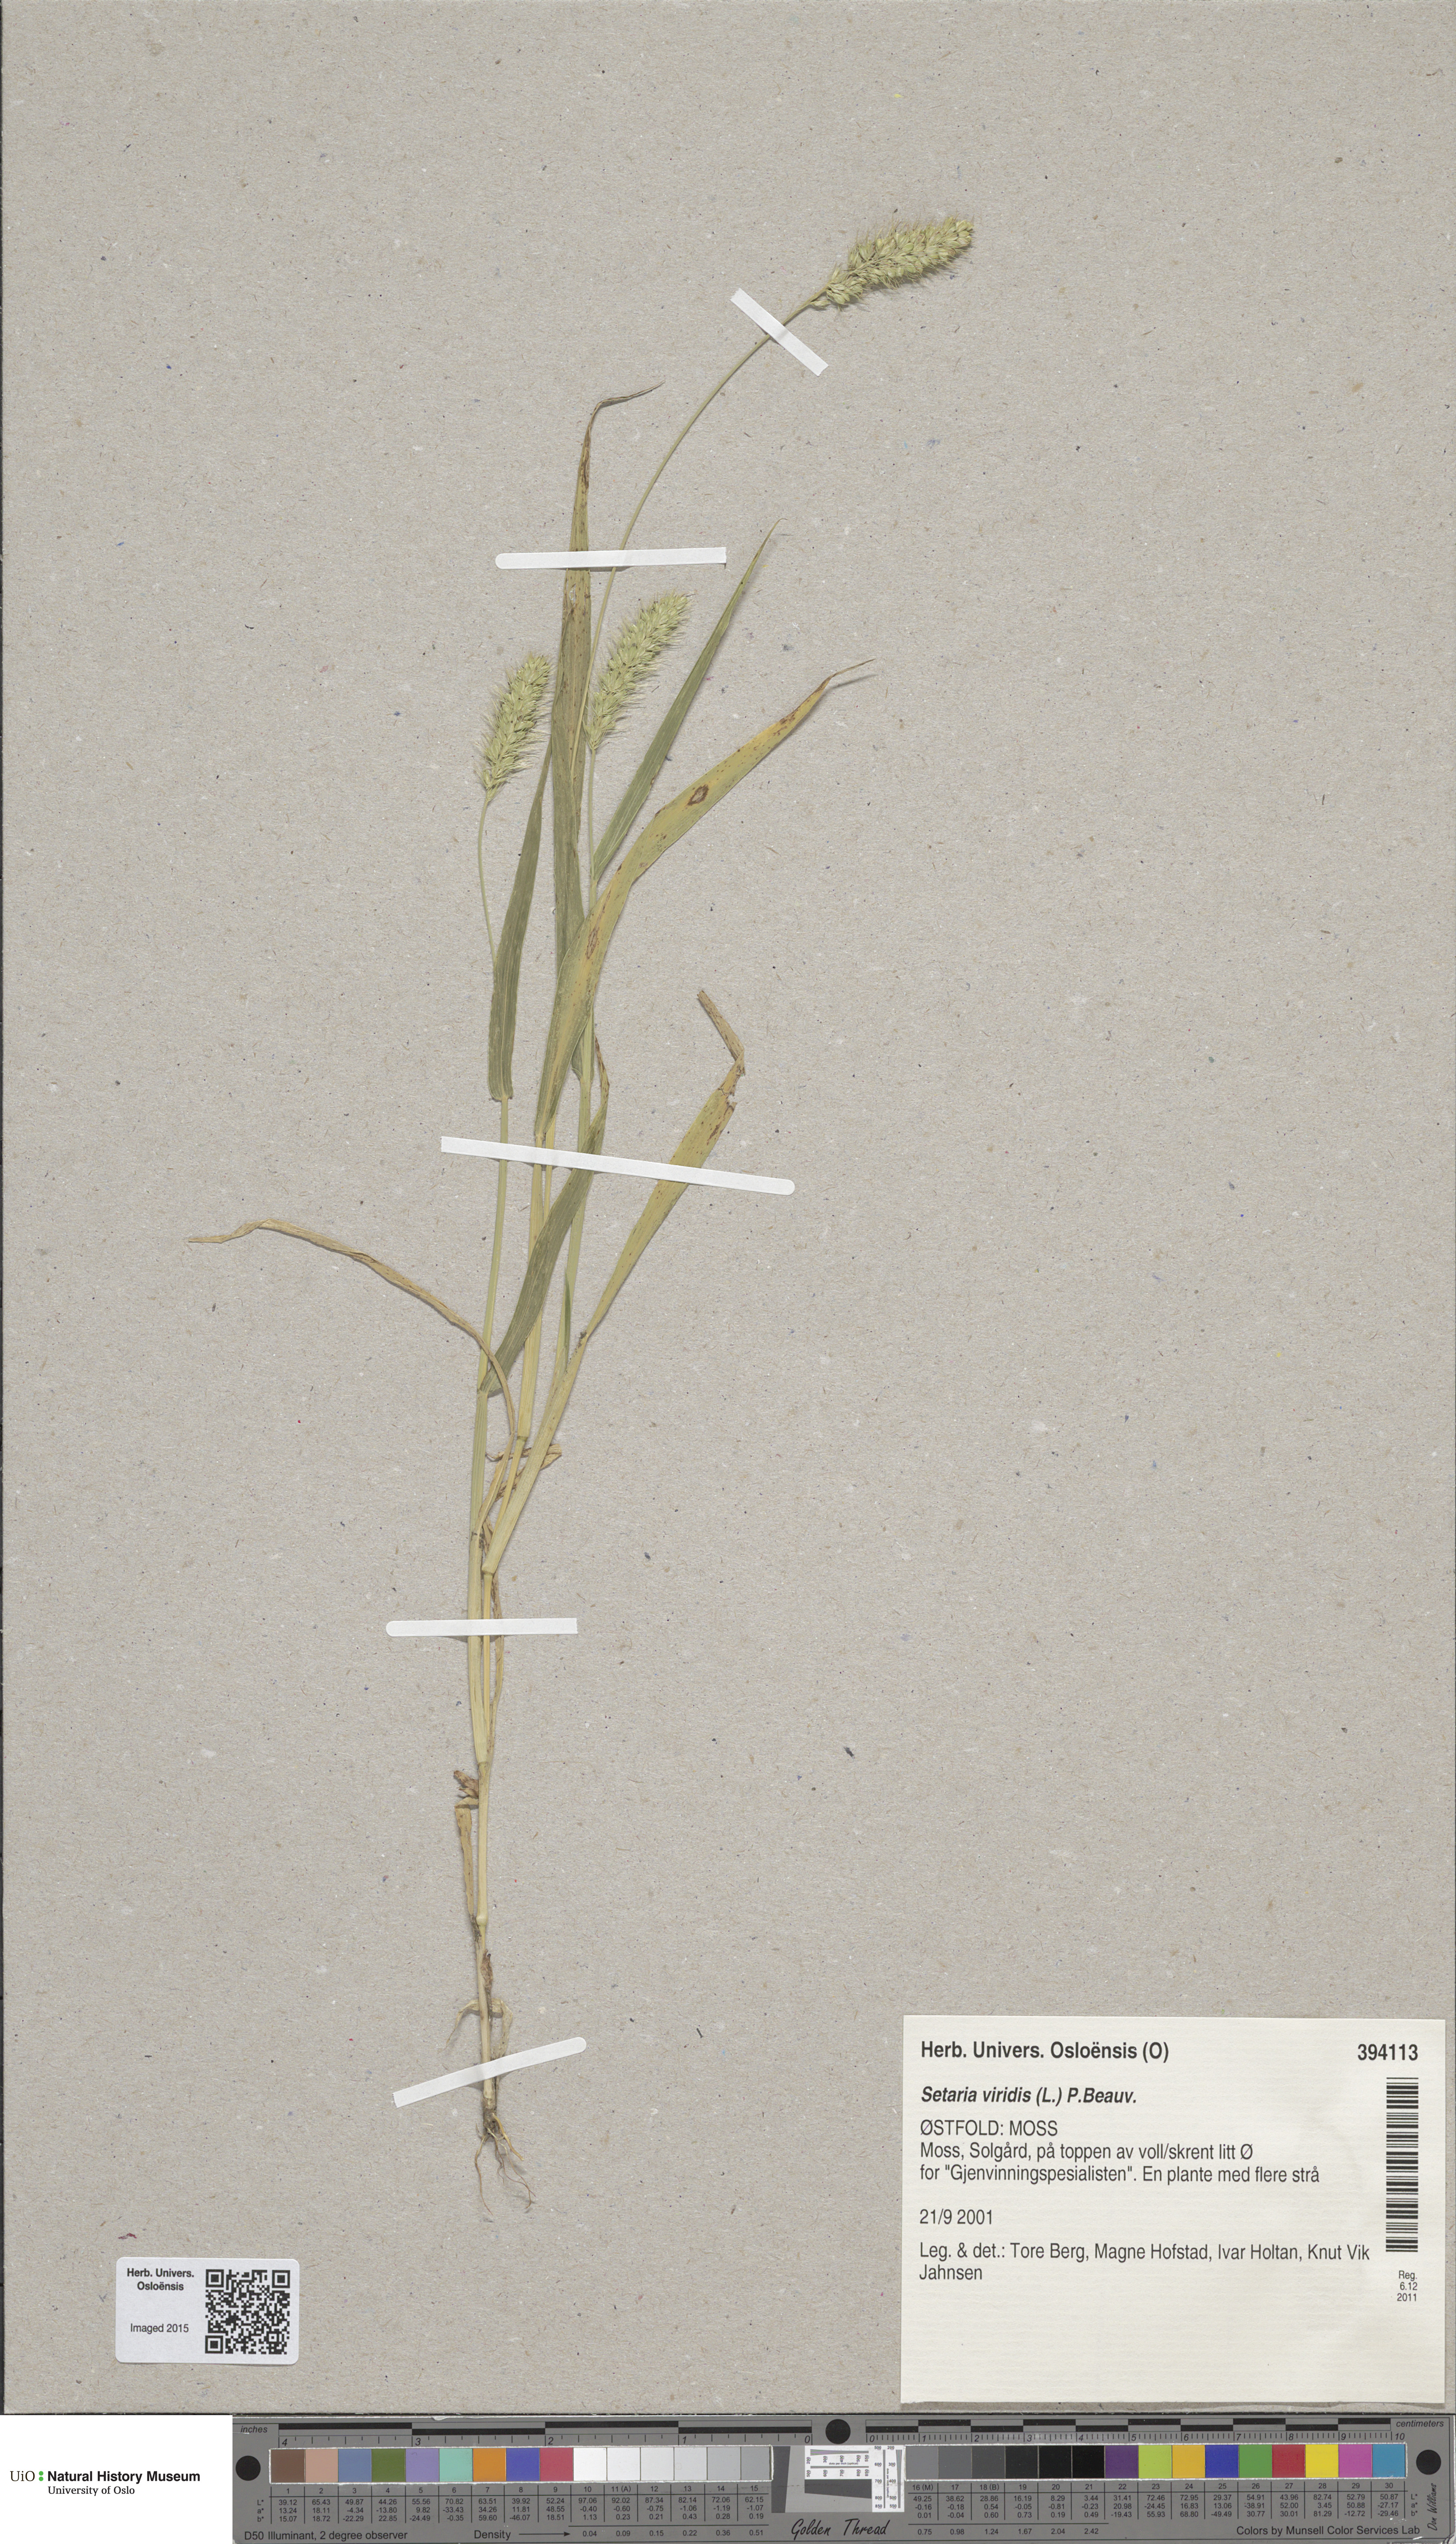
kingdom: Plantae
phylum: Tracheophyta
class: Liliopsida
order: Poales
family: Poaceae
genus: Setaria
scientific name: Setaria viridis
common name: Green bristlegrass
